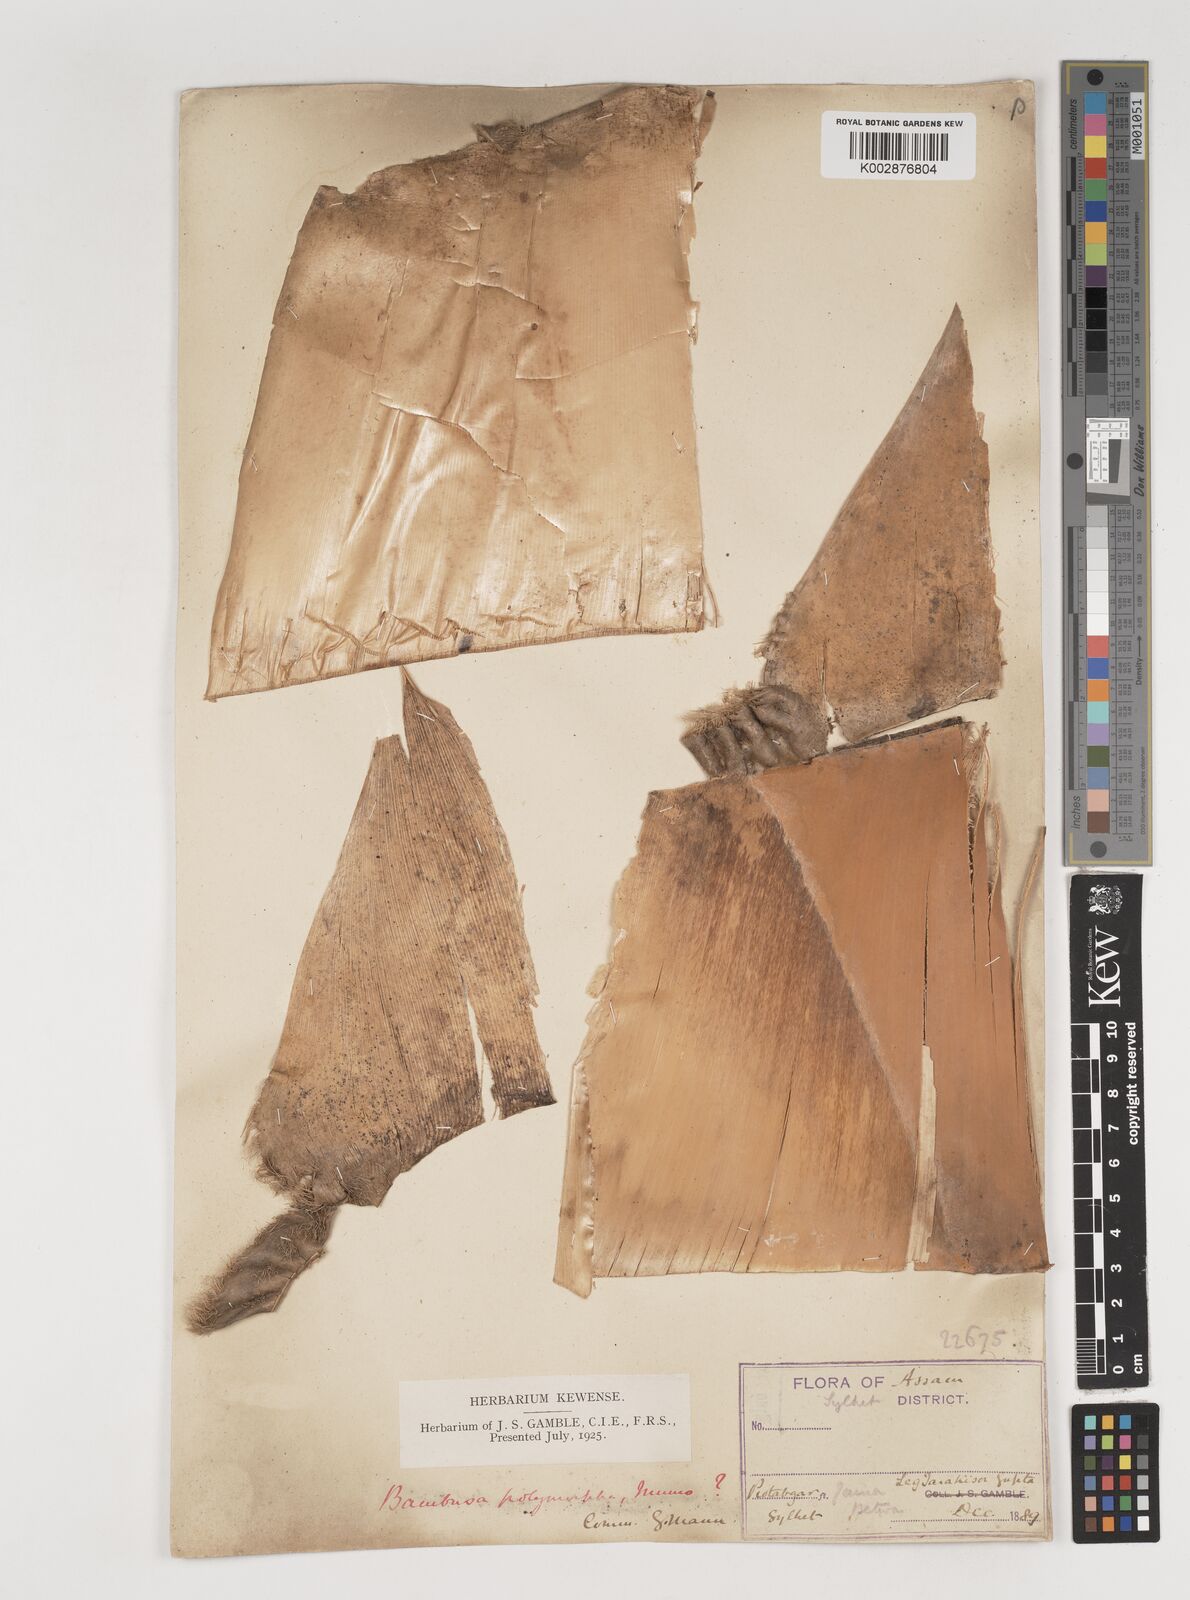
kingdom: Plantae
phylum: Tracheophyta
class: Liliopsida
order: Poales
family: Poaceae
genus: Bambusa
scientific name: Bambusa polymorpha
